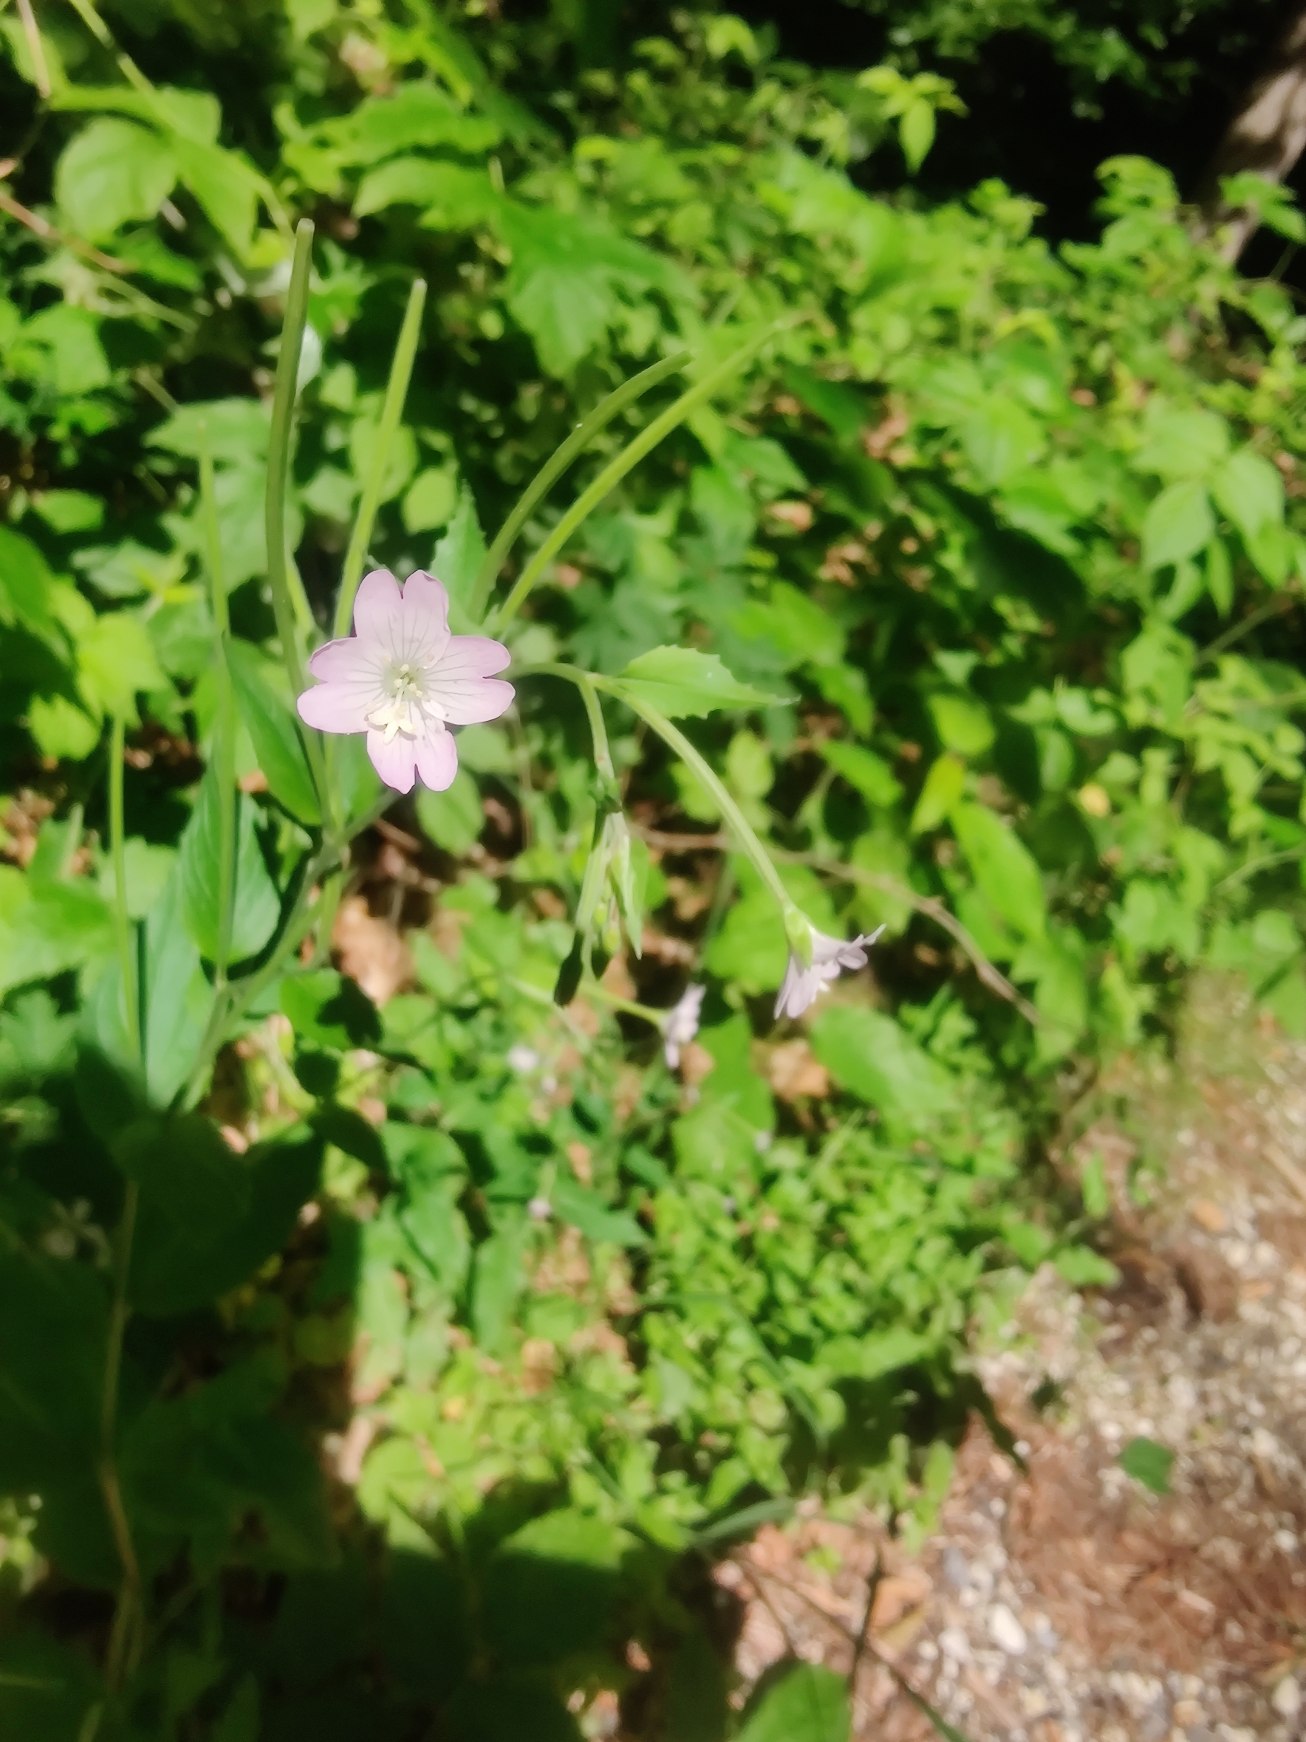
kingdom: Plantae
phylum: Tracheophyta
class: Magnoliopsida
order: Myrtales
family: Onagraceae
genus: Epilobium
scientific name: Epilobium montanum
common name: Glat dueurt
